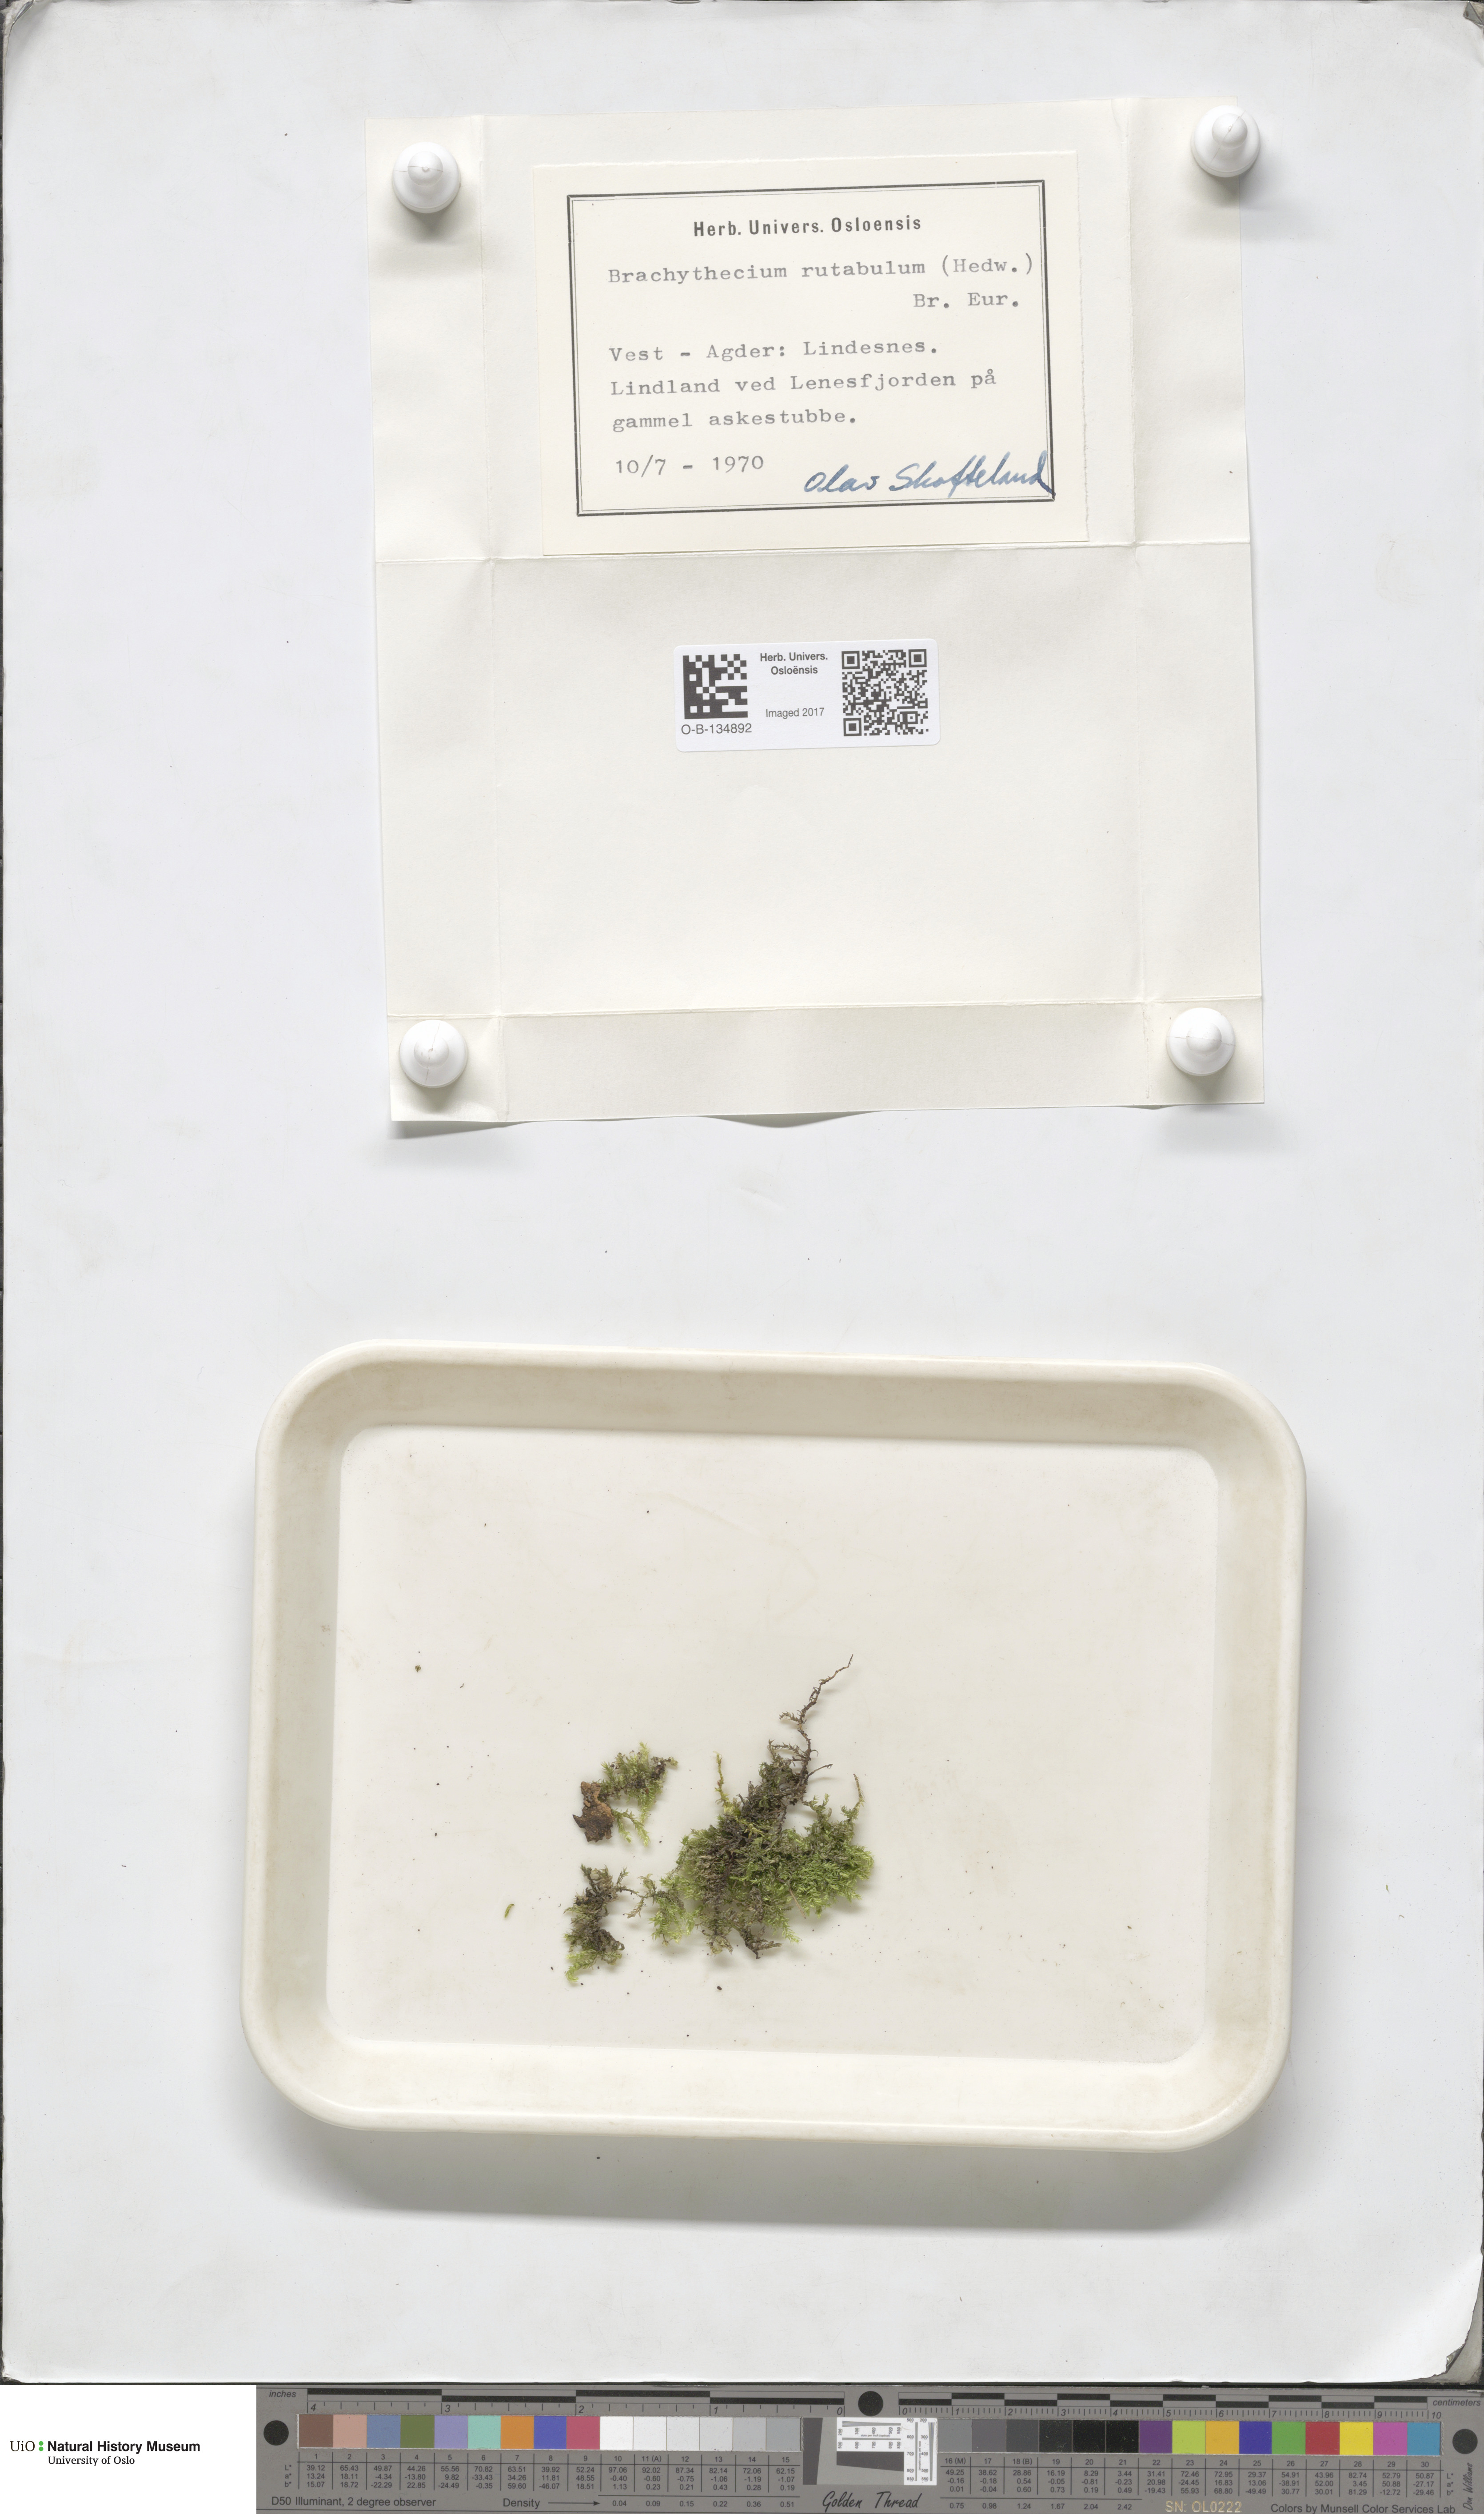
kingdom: Plantae
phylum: Bryophyta
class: Bryopsida
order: Hypnales
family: Brachytheciaceae
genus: Brachythecium
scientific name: Brachythecium rutabulum
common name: Rough-stalked feather-moss
